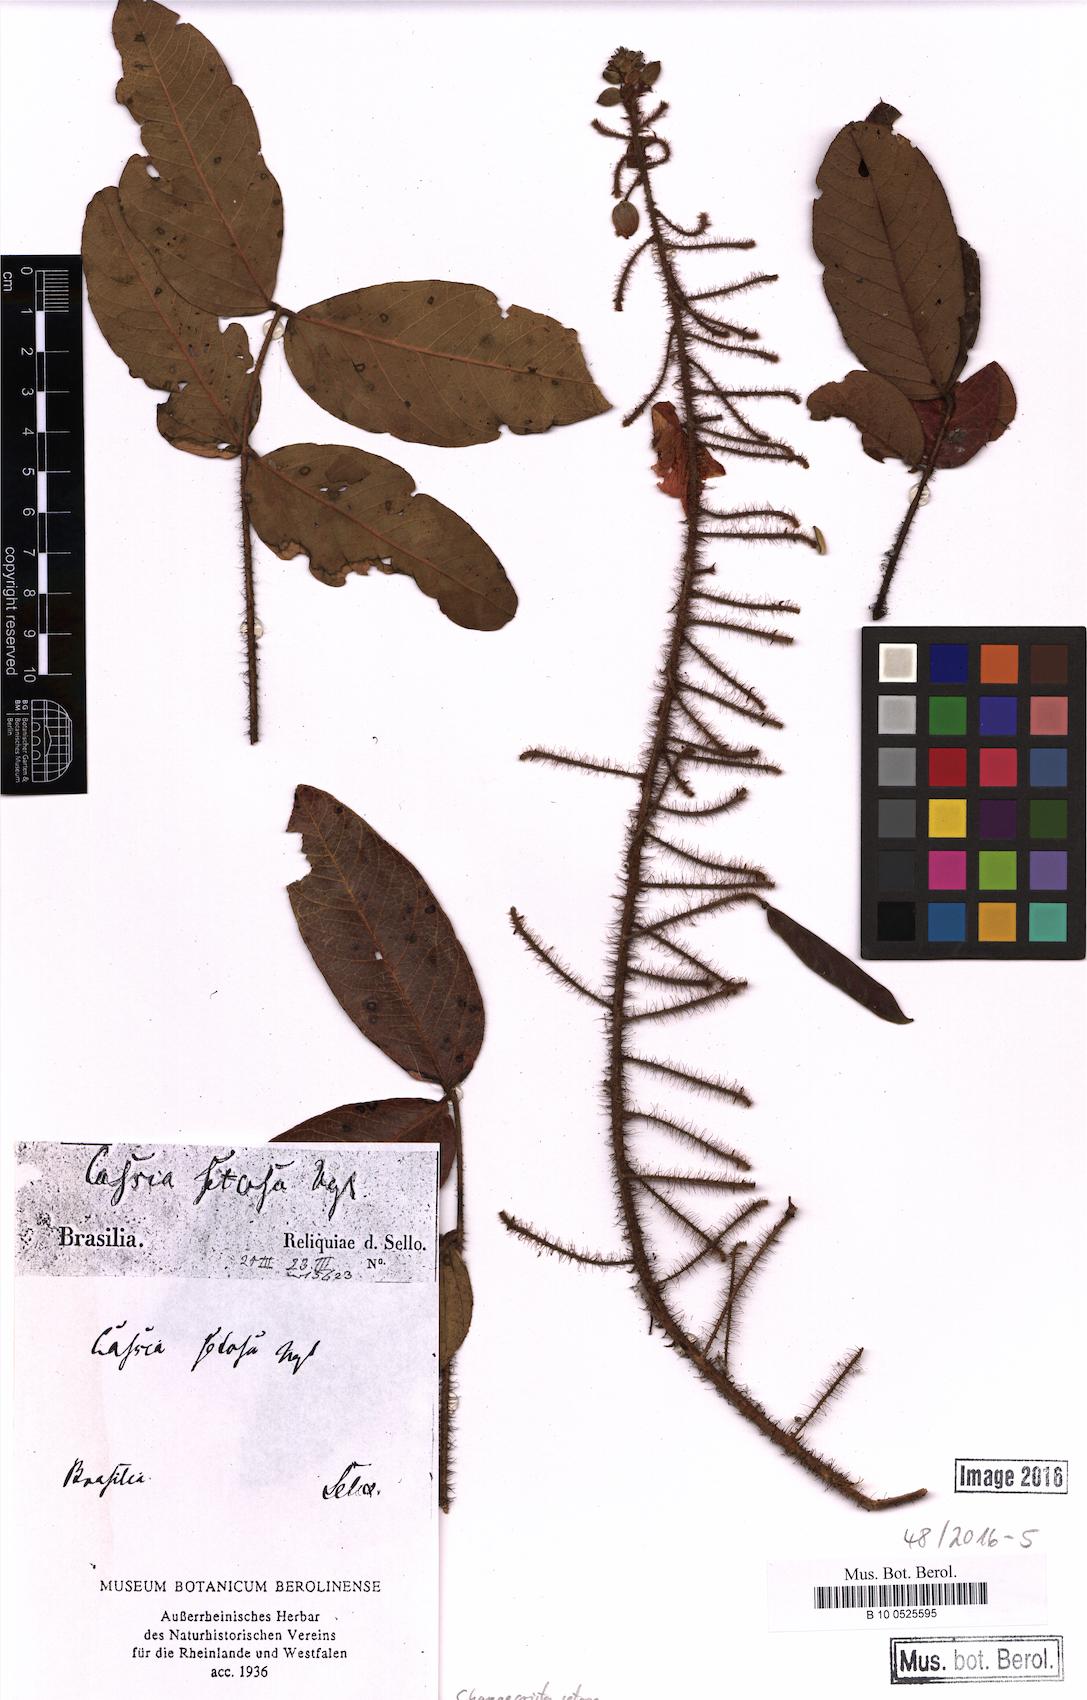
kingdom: Plantae
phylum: Tracheophyta
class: Magnoliopsida
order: Fabales
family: Fabaceae
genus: Chamaecrista
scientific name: Chamaecrista setosa
